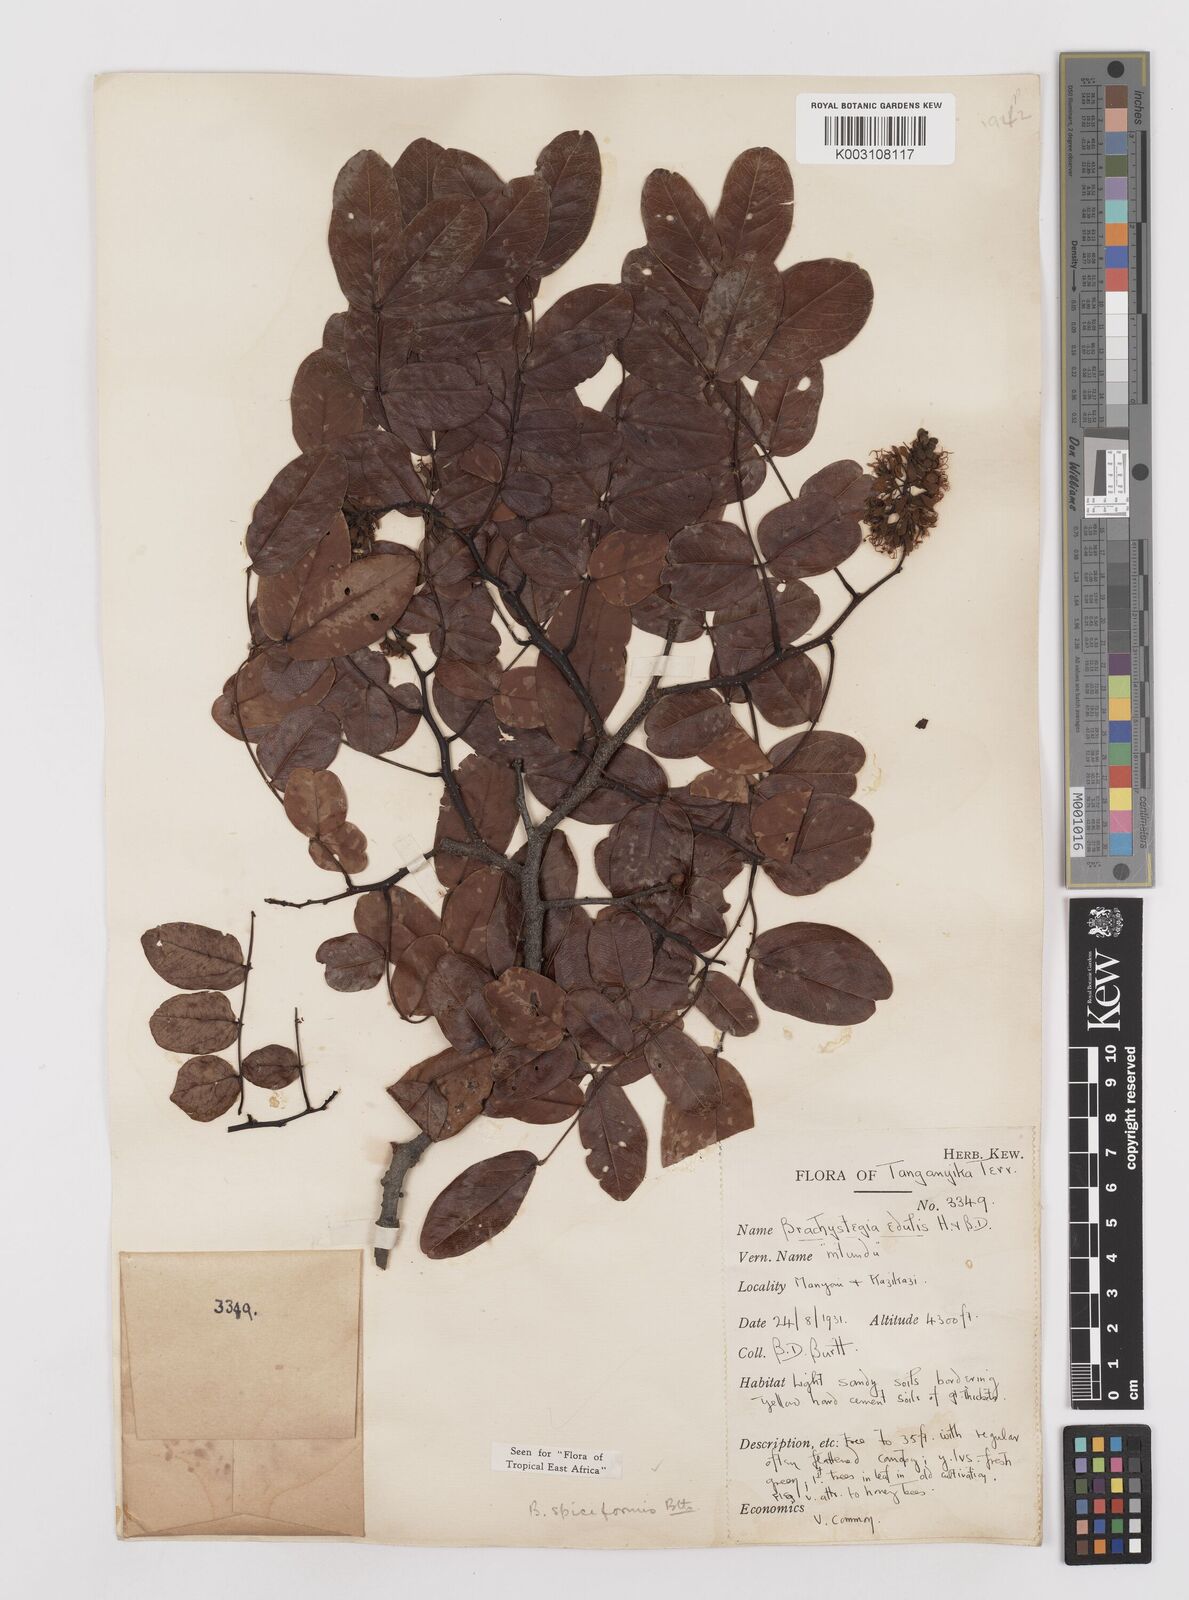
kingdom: Plantae
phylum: Tracheophyta
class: Magnoliopsida
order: Fabales
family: Fabaceae
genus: Brachystegia
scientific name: Brachystegia spiciformis
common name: Zebrawood
